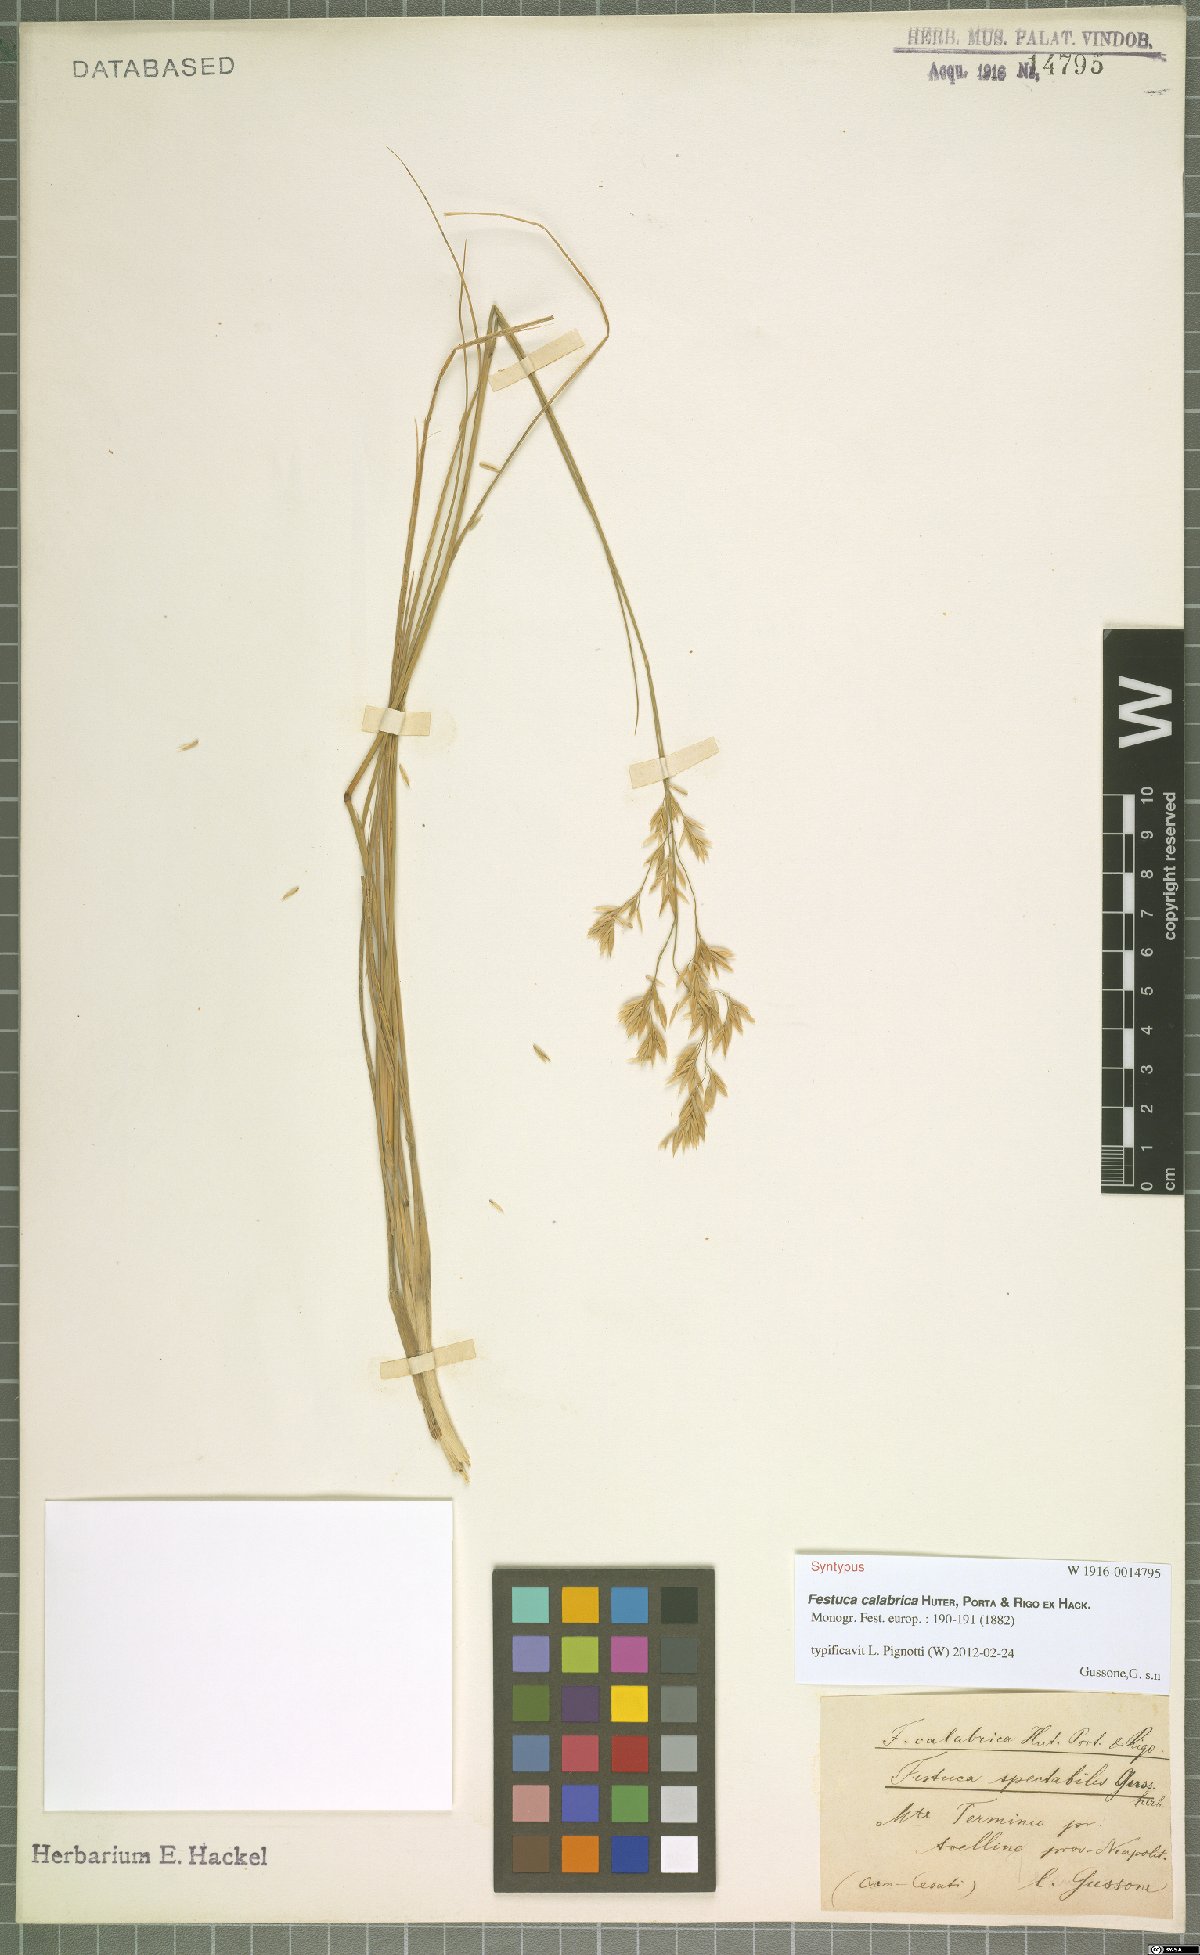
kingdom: Plantae
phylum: Tracheophyta
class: Liliopsida
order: Poales
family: Poaceae
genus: Festuca
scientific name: Festuca calabrica
